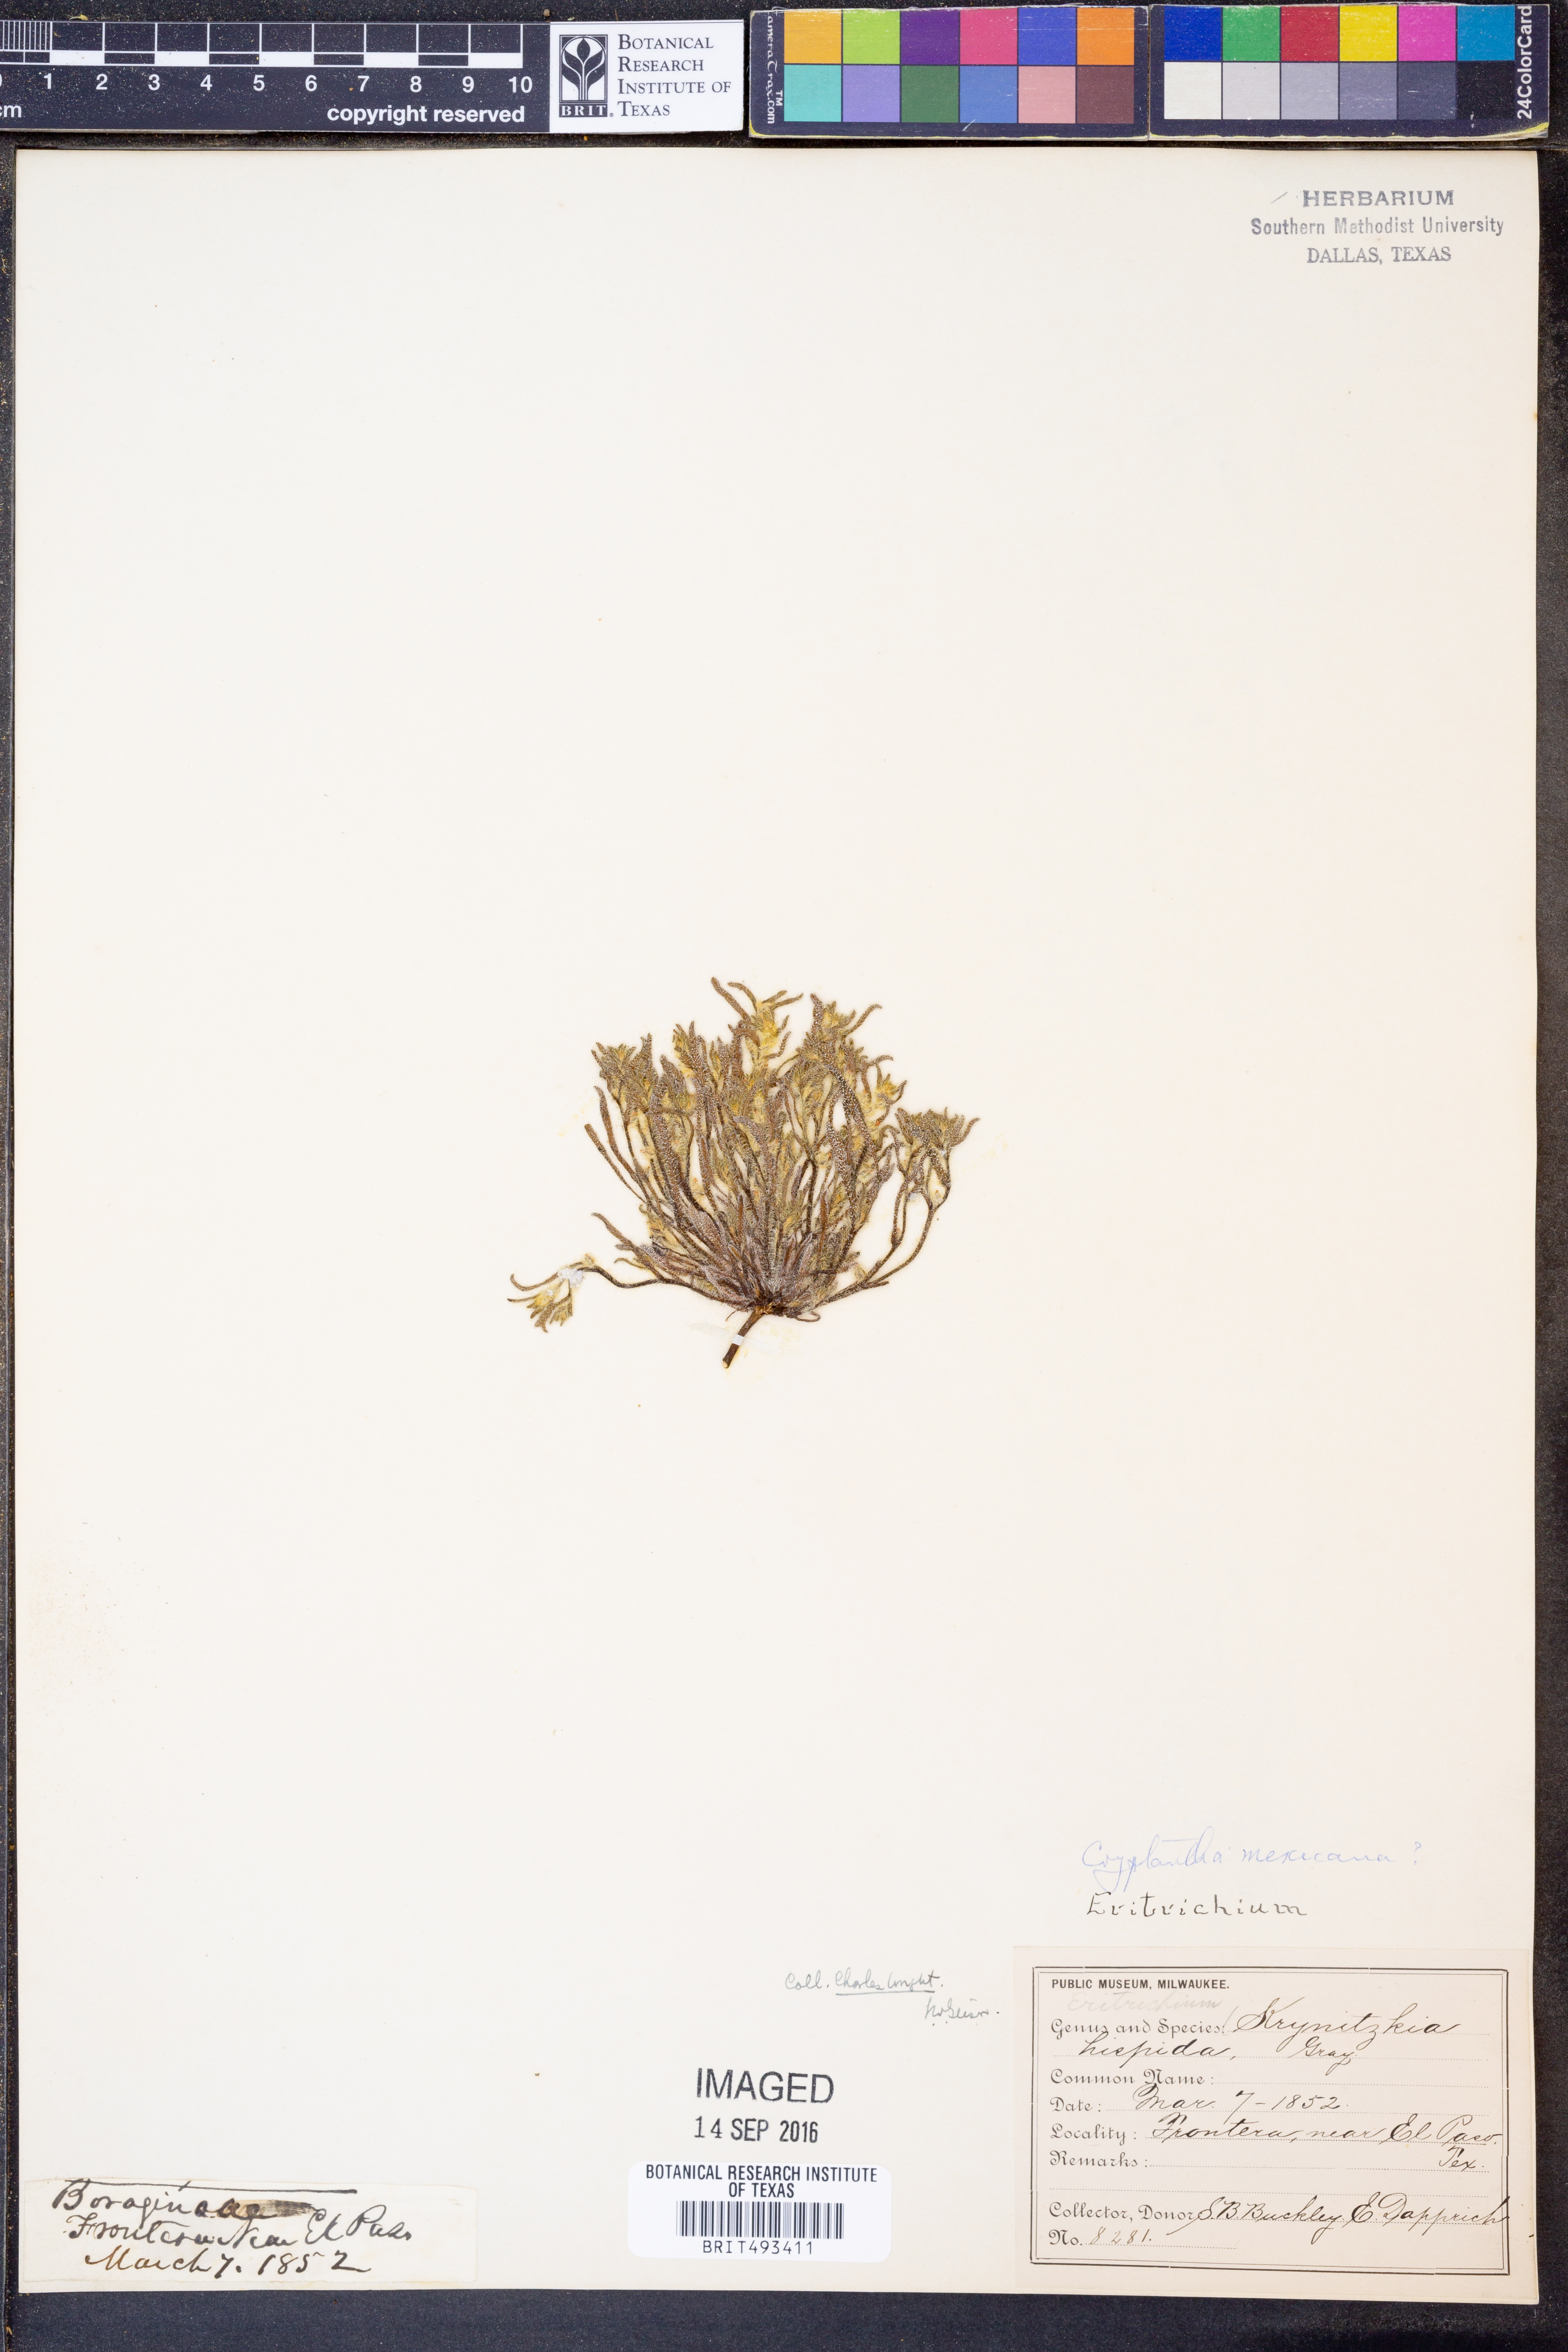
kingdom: Plantae
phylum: Tracheophyta
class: Magnoliopsida
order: Boraginales
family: Boraginaceae
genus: Johnstonella
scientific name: Johnstonella mexicana
